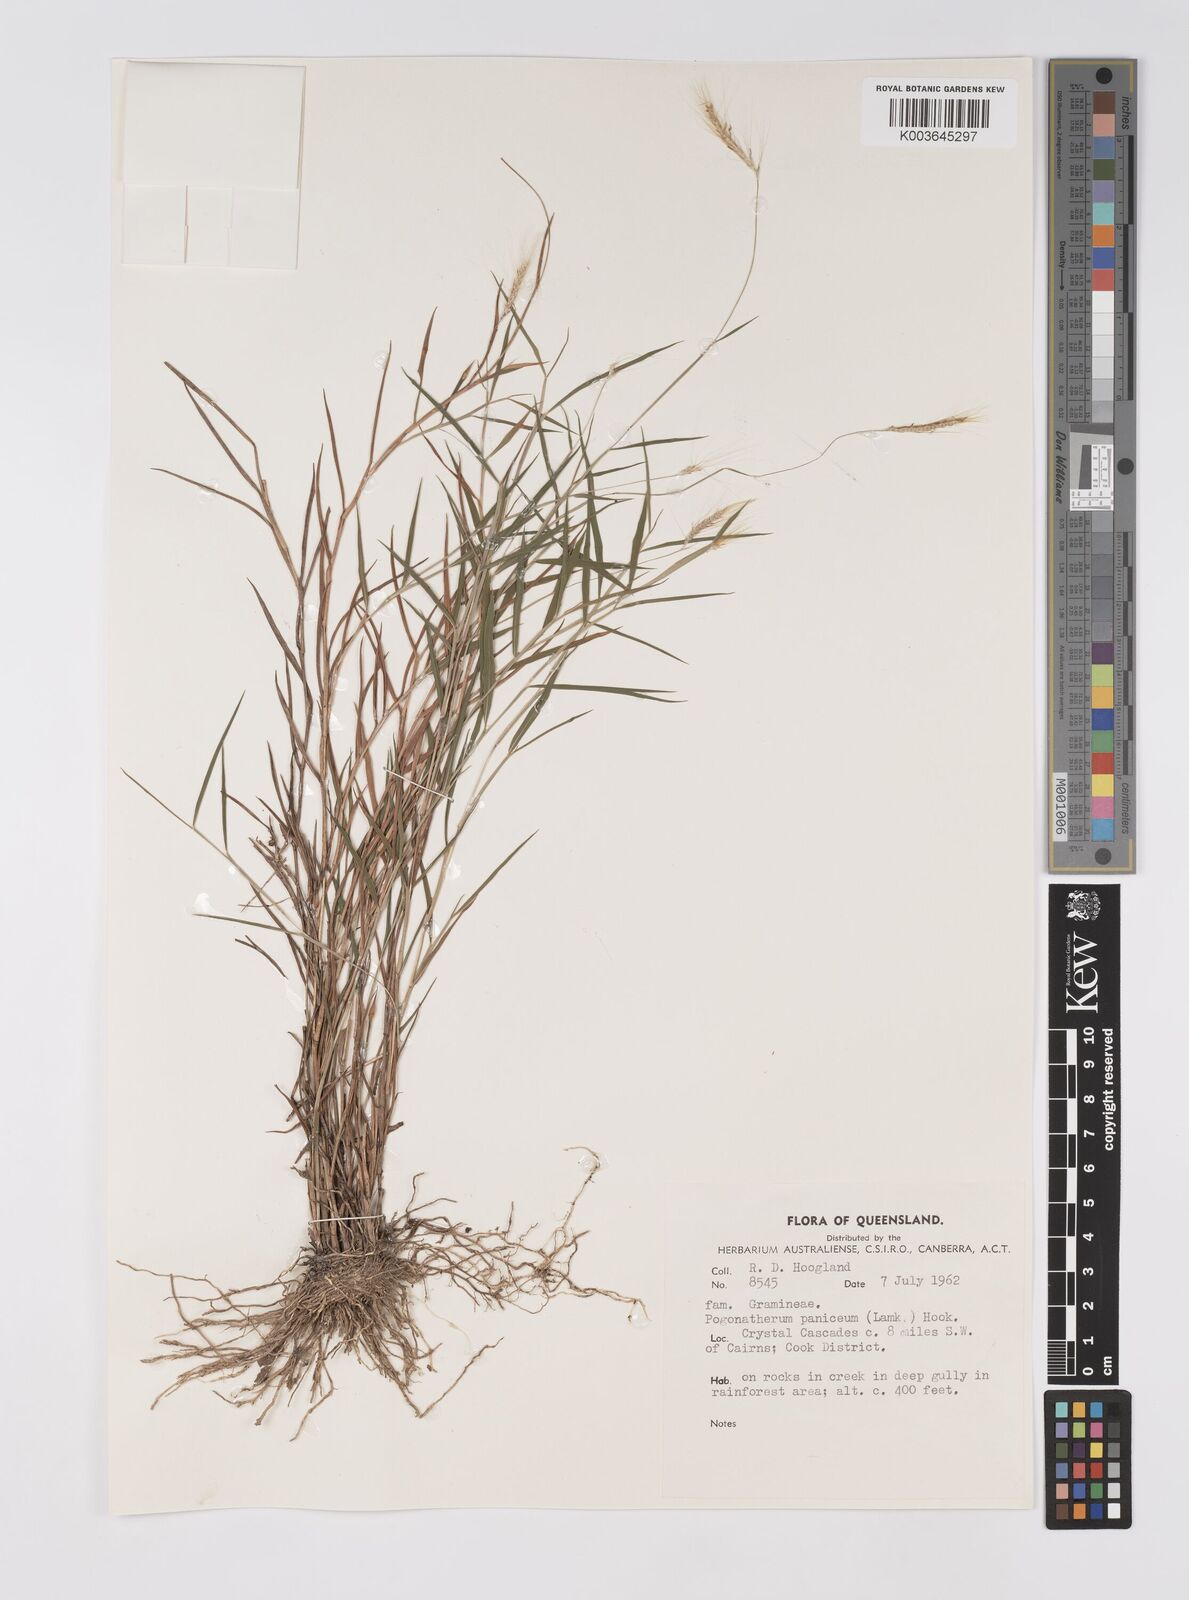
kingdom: Plantae
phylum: Tracheophyta
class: Liliopsida
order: Poales
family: Poaceae
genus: Pogonatherum
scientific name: Pogonatherum paniceum
